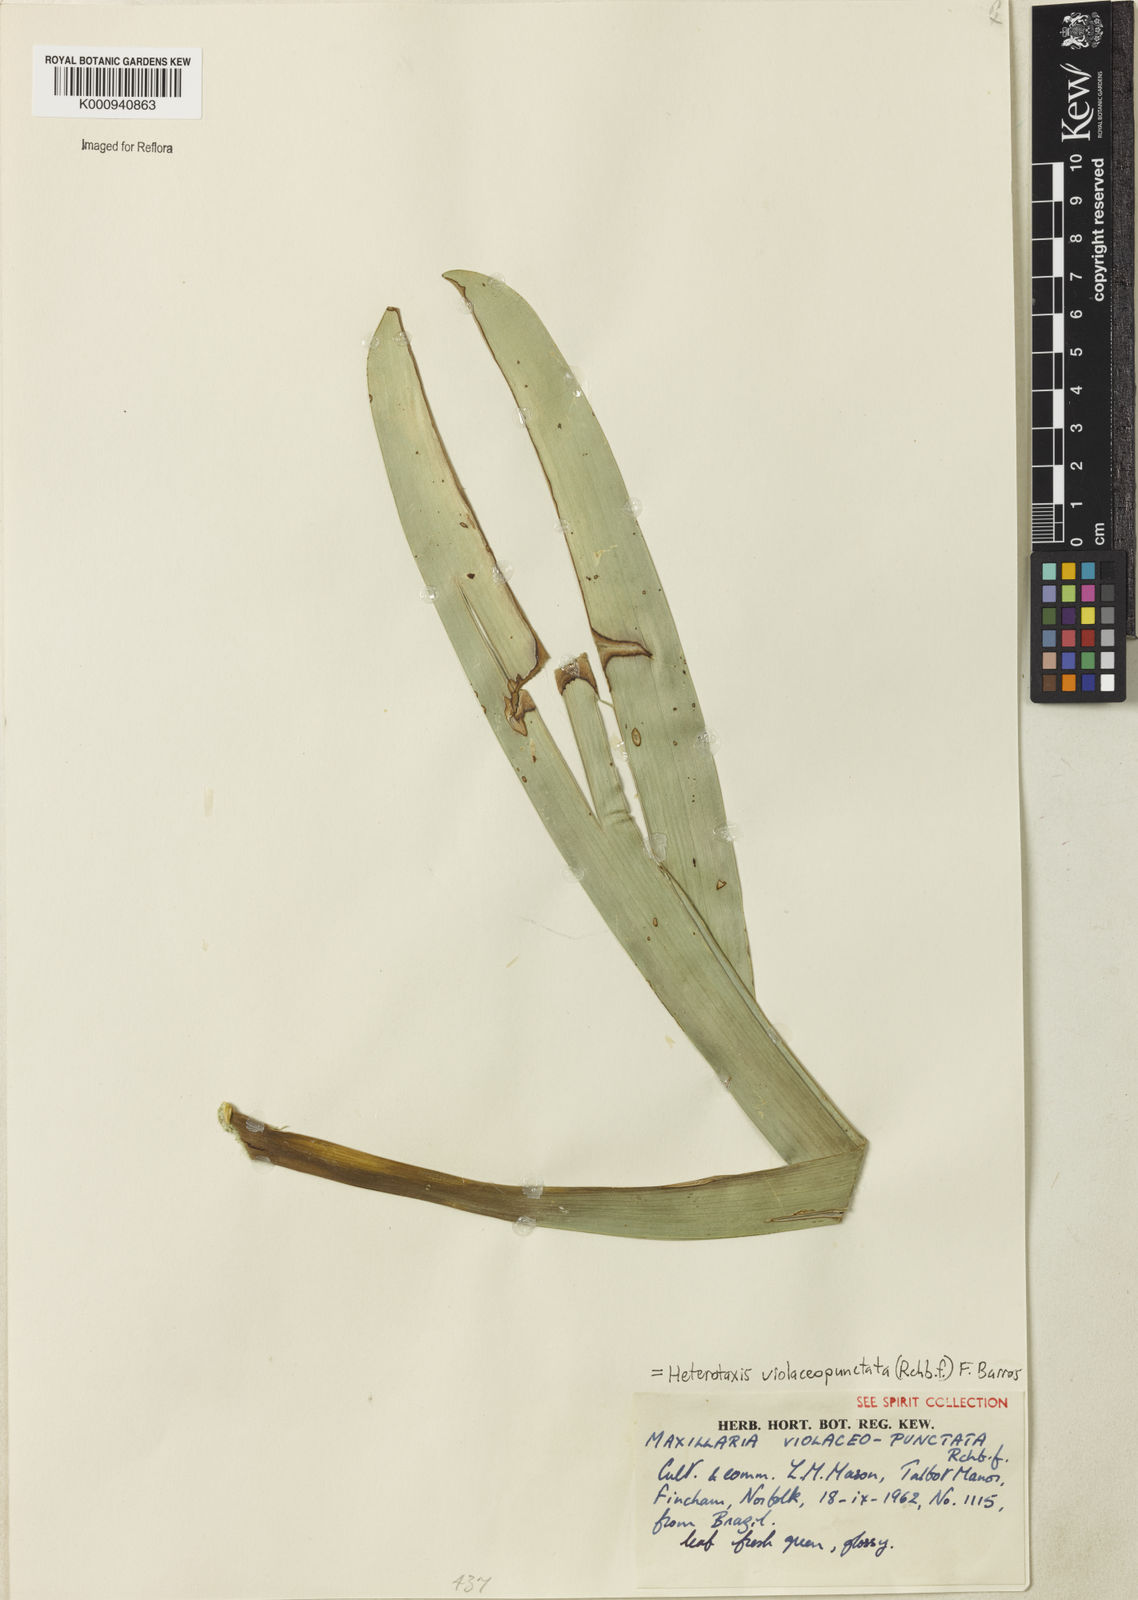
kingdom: Plantae
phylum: Tracheophyta
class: Liliopsida
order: Asparagales
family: Orchidaceae
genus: Maxillaria
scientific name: Maxillaria violaceopunctata
